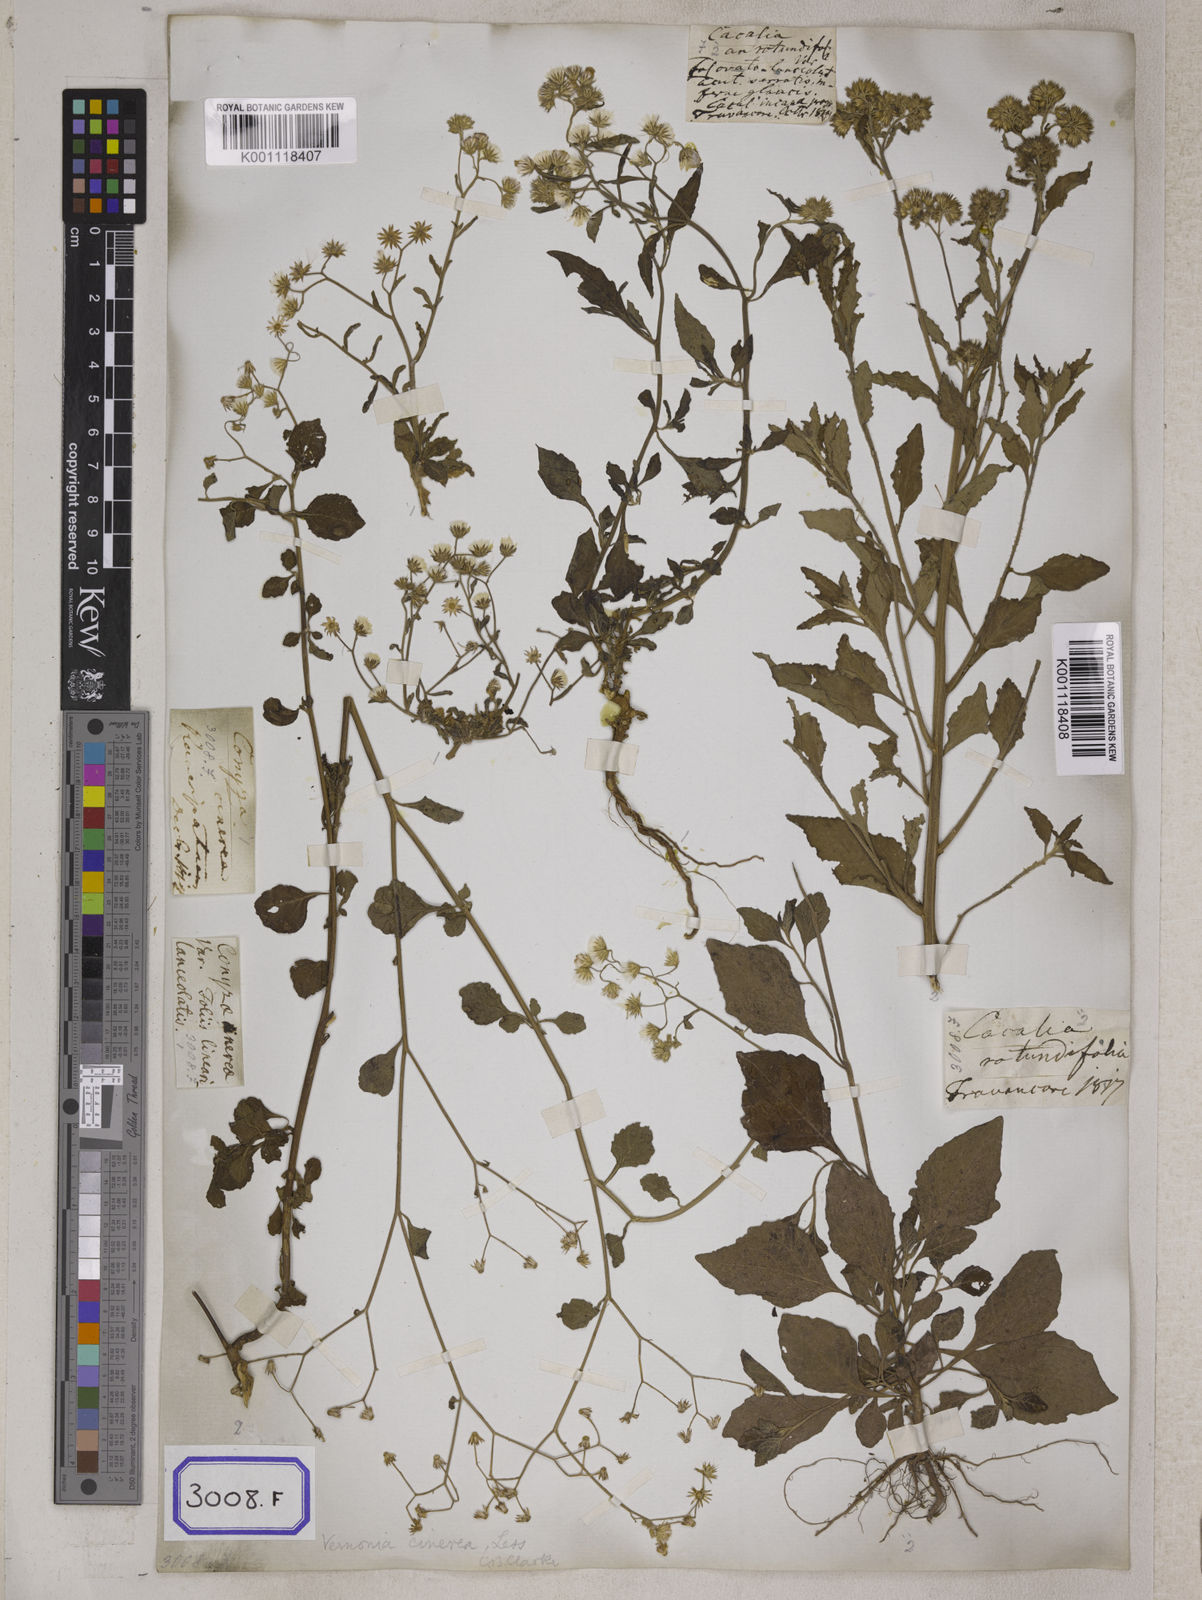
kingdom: Plantae
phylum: Tracheophyta
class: Magnoliopsida
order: Asterales
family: Asteraceae
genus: Cyanthillium
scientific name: Cyanthillium cinereum
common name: Little ironweed
